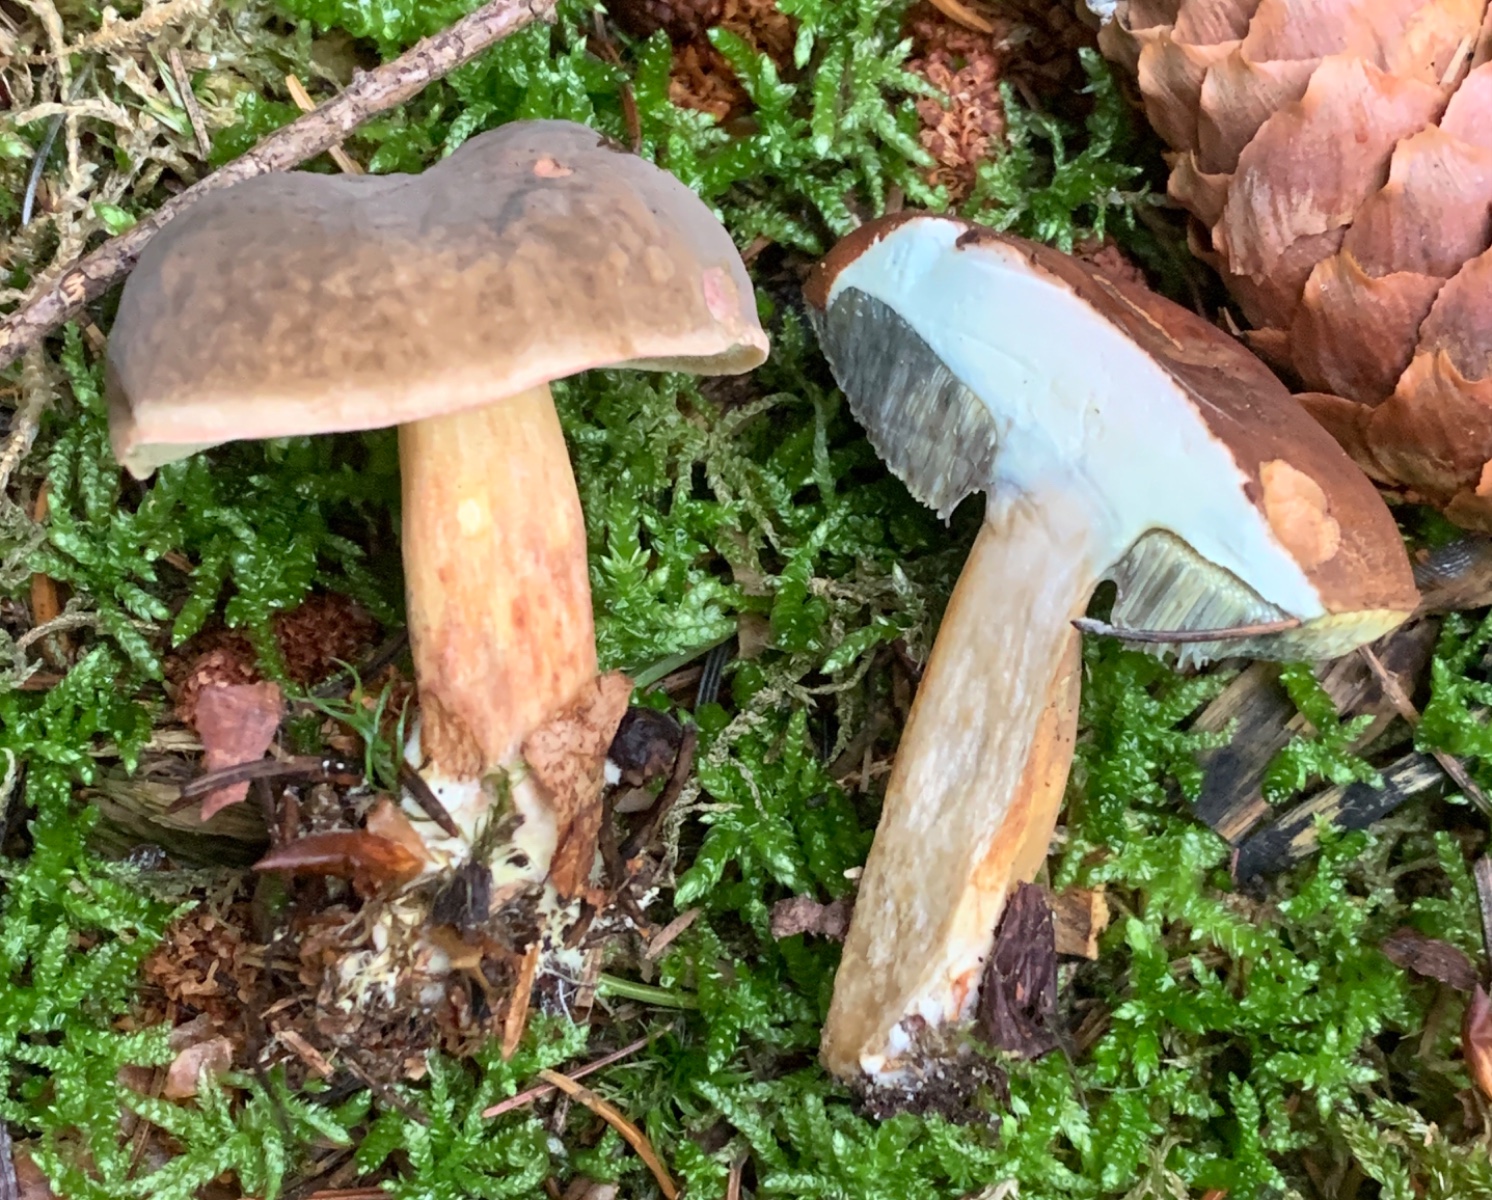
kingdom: Fungi
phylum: Basidiomycota
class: Agaricomycetes
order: Boletales
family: Boletaceae
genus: Imleria
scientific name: Imleria badia
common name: brunstokket rørhat
